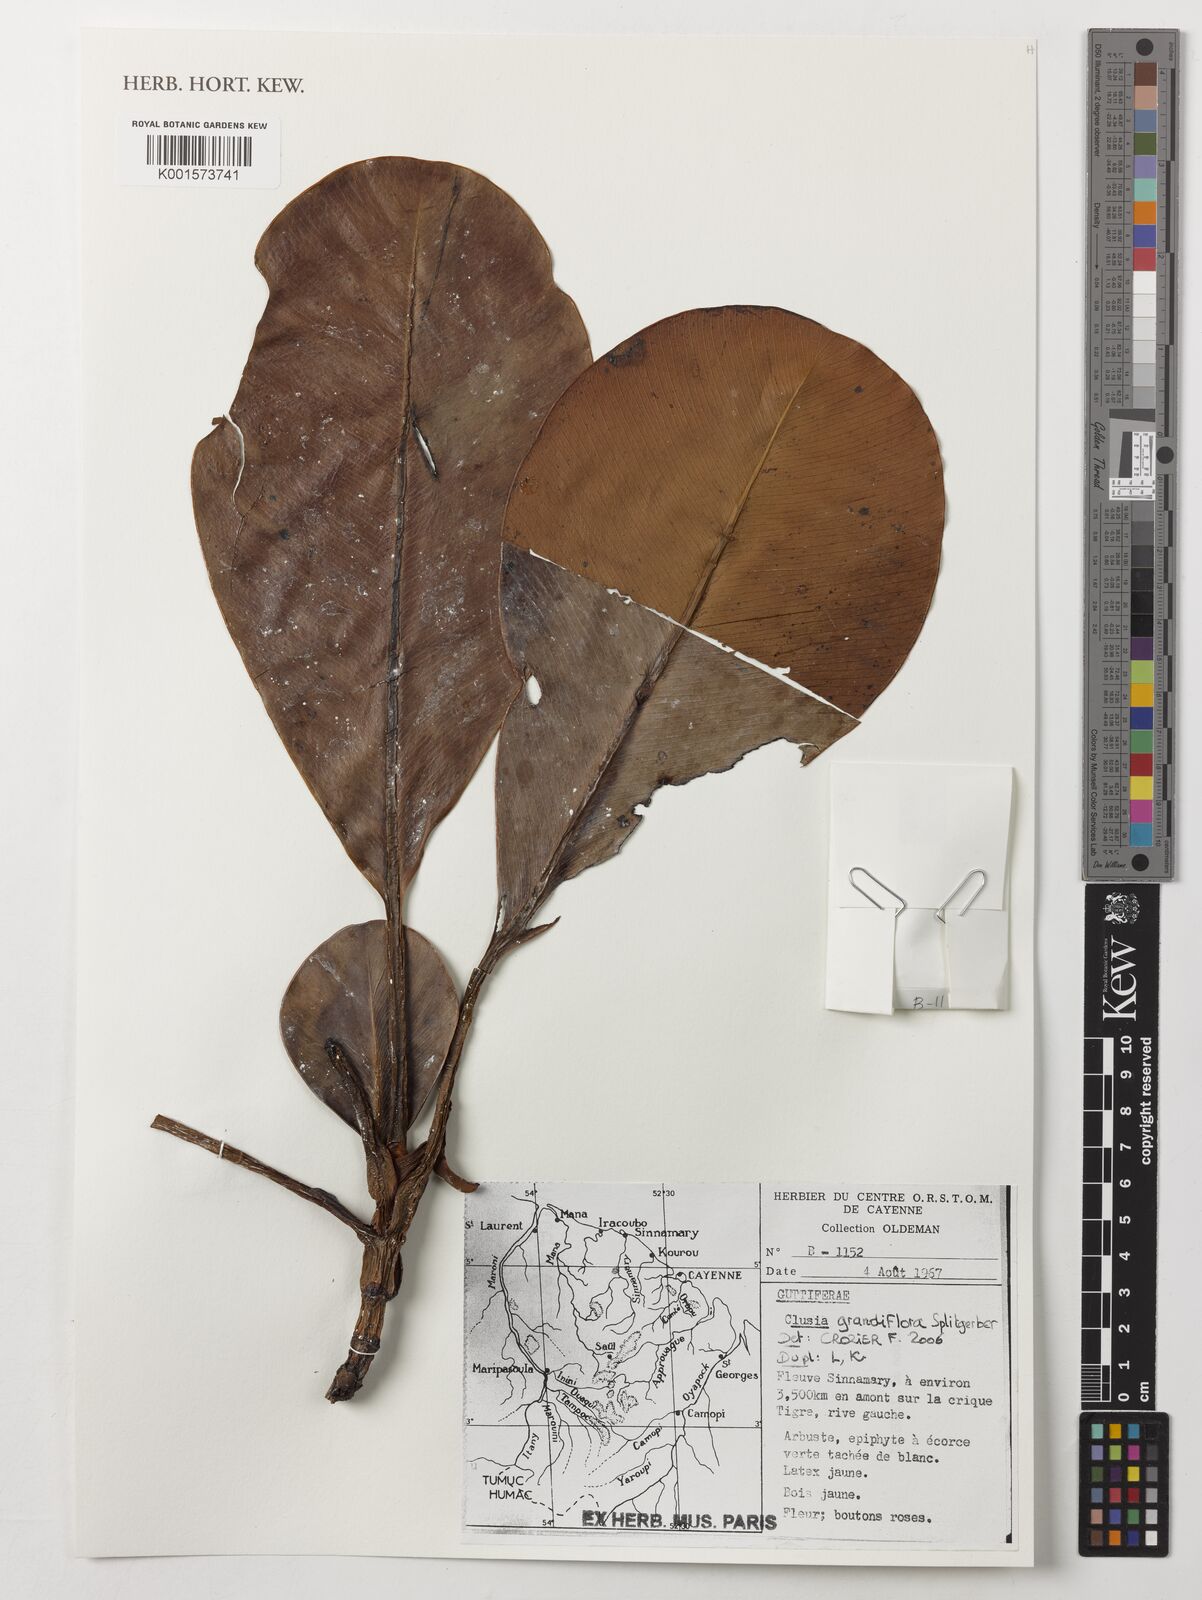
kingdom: Plantae
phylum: Tracheophyta
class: Magnoliopsida
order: Malpighiales
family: Clusiaceae
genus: Clusia
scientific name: Clusia grandiflora
